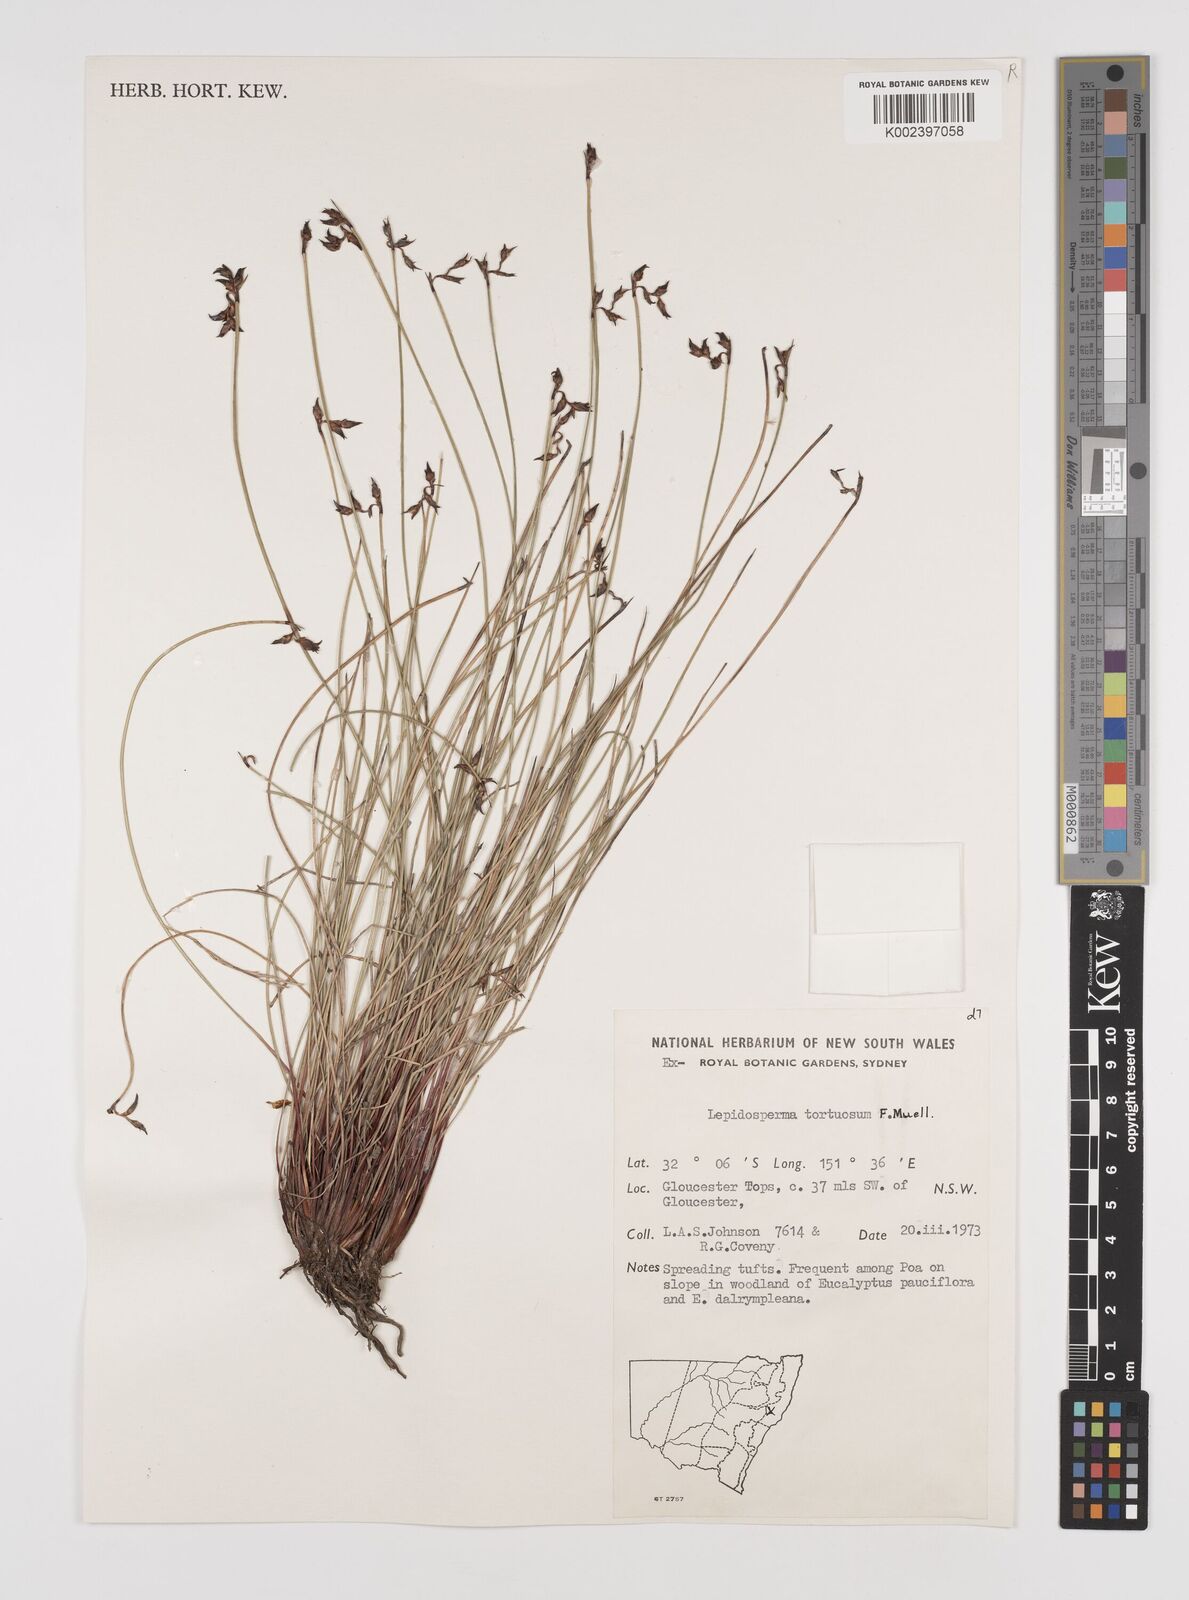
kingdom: Plantae
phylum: Tracheophyta
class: Liliopsida
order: Poales
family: Cyperaceae
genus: Lepidosperma
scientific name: Lepidosperma tortuosum
